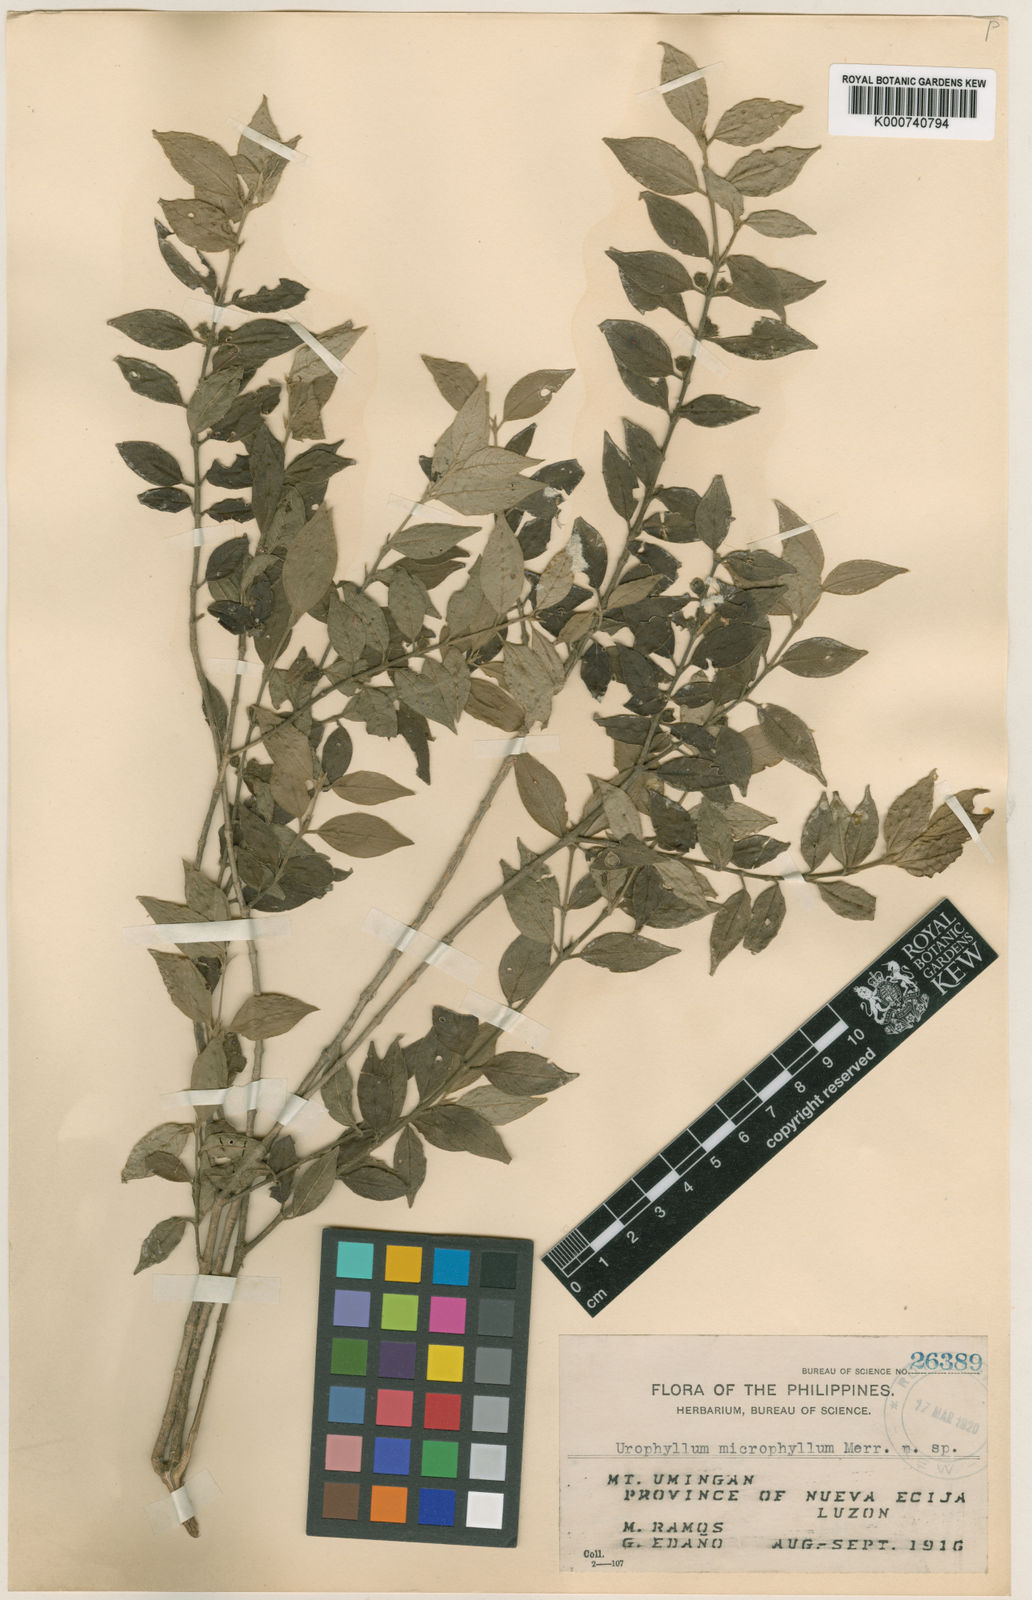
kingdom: Plantae
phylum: Tracheophyta
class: Magnoliopsida
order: Gentianales
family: Rubiaceae
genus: Praravinia
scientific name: Praravinia microphylla
